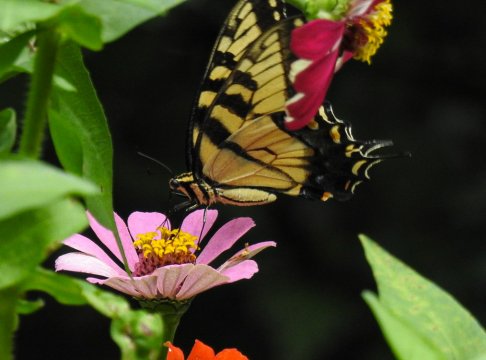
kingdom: Animalia
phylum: Arthropoda
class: Insecta
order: Lepidoptera
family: Papilionidae
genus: Pterourus
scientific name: Pterourus glaucus
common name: Eastern Tiger Swallowtail
